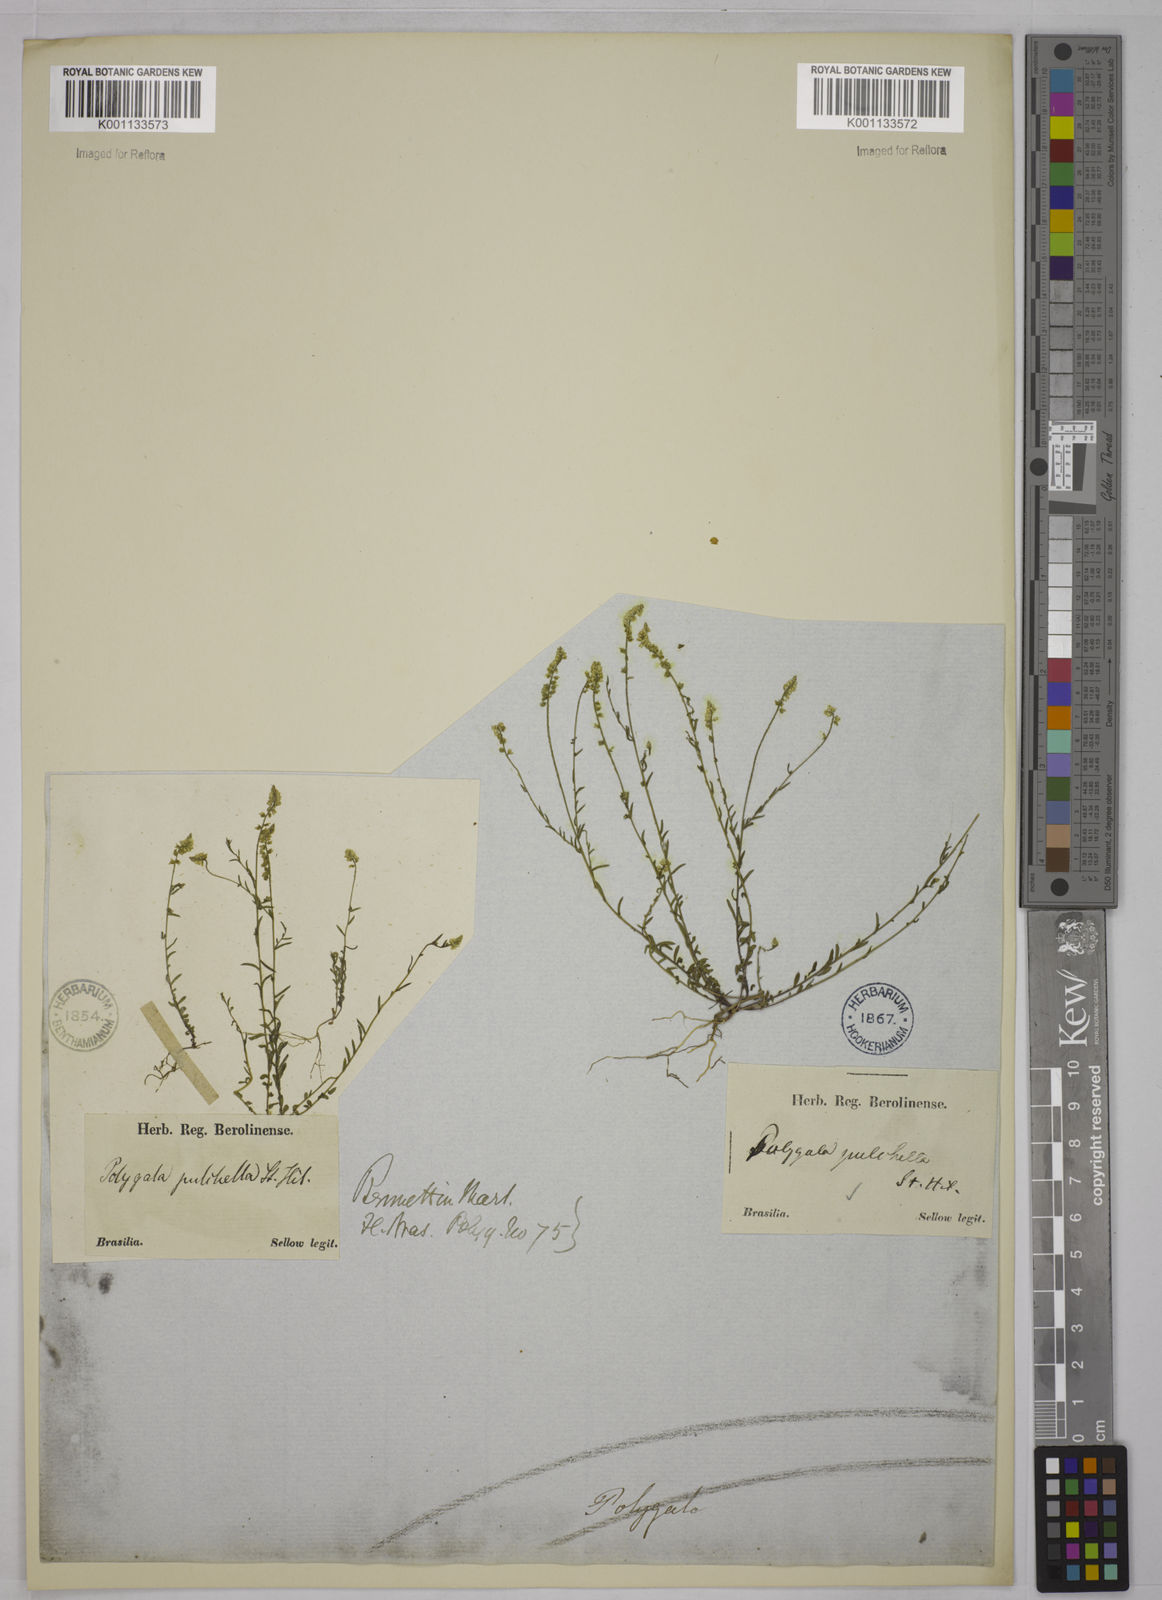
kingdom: Plantae
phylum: Tracheophyta
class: Magnoliopsida
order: Fabales
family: Polygalaceae
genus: Polygala
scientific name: Polygala pulchella
